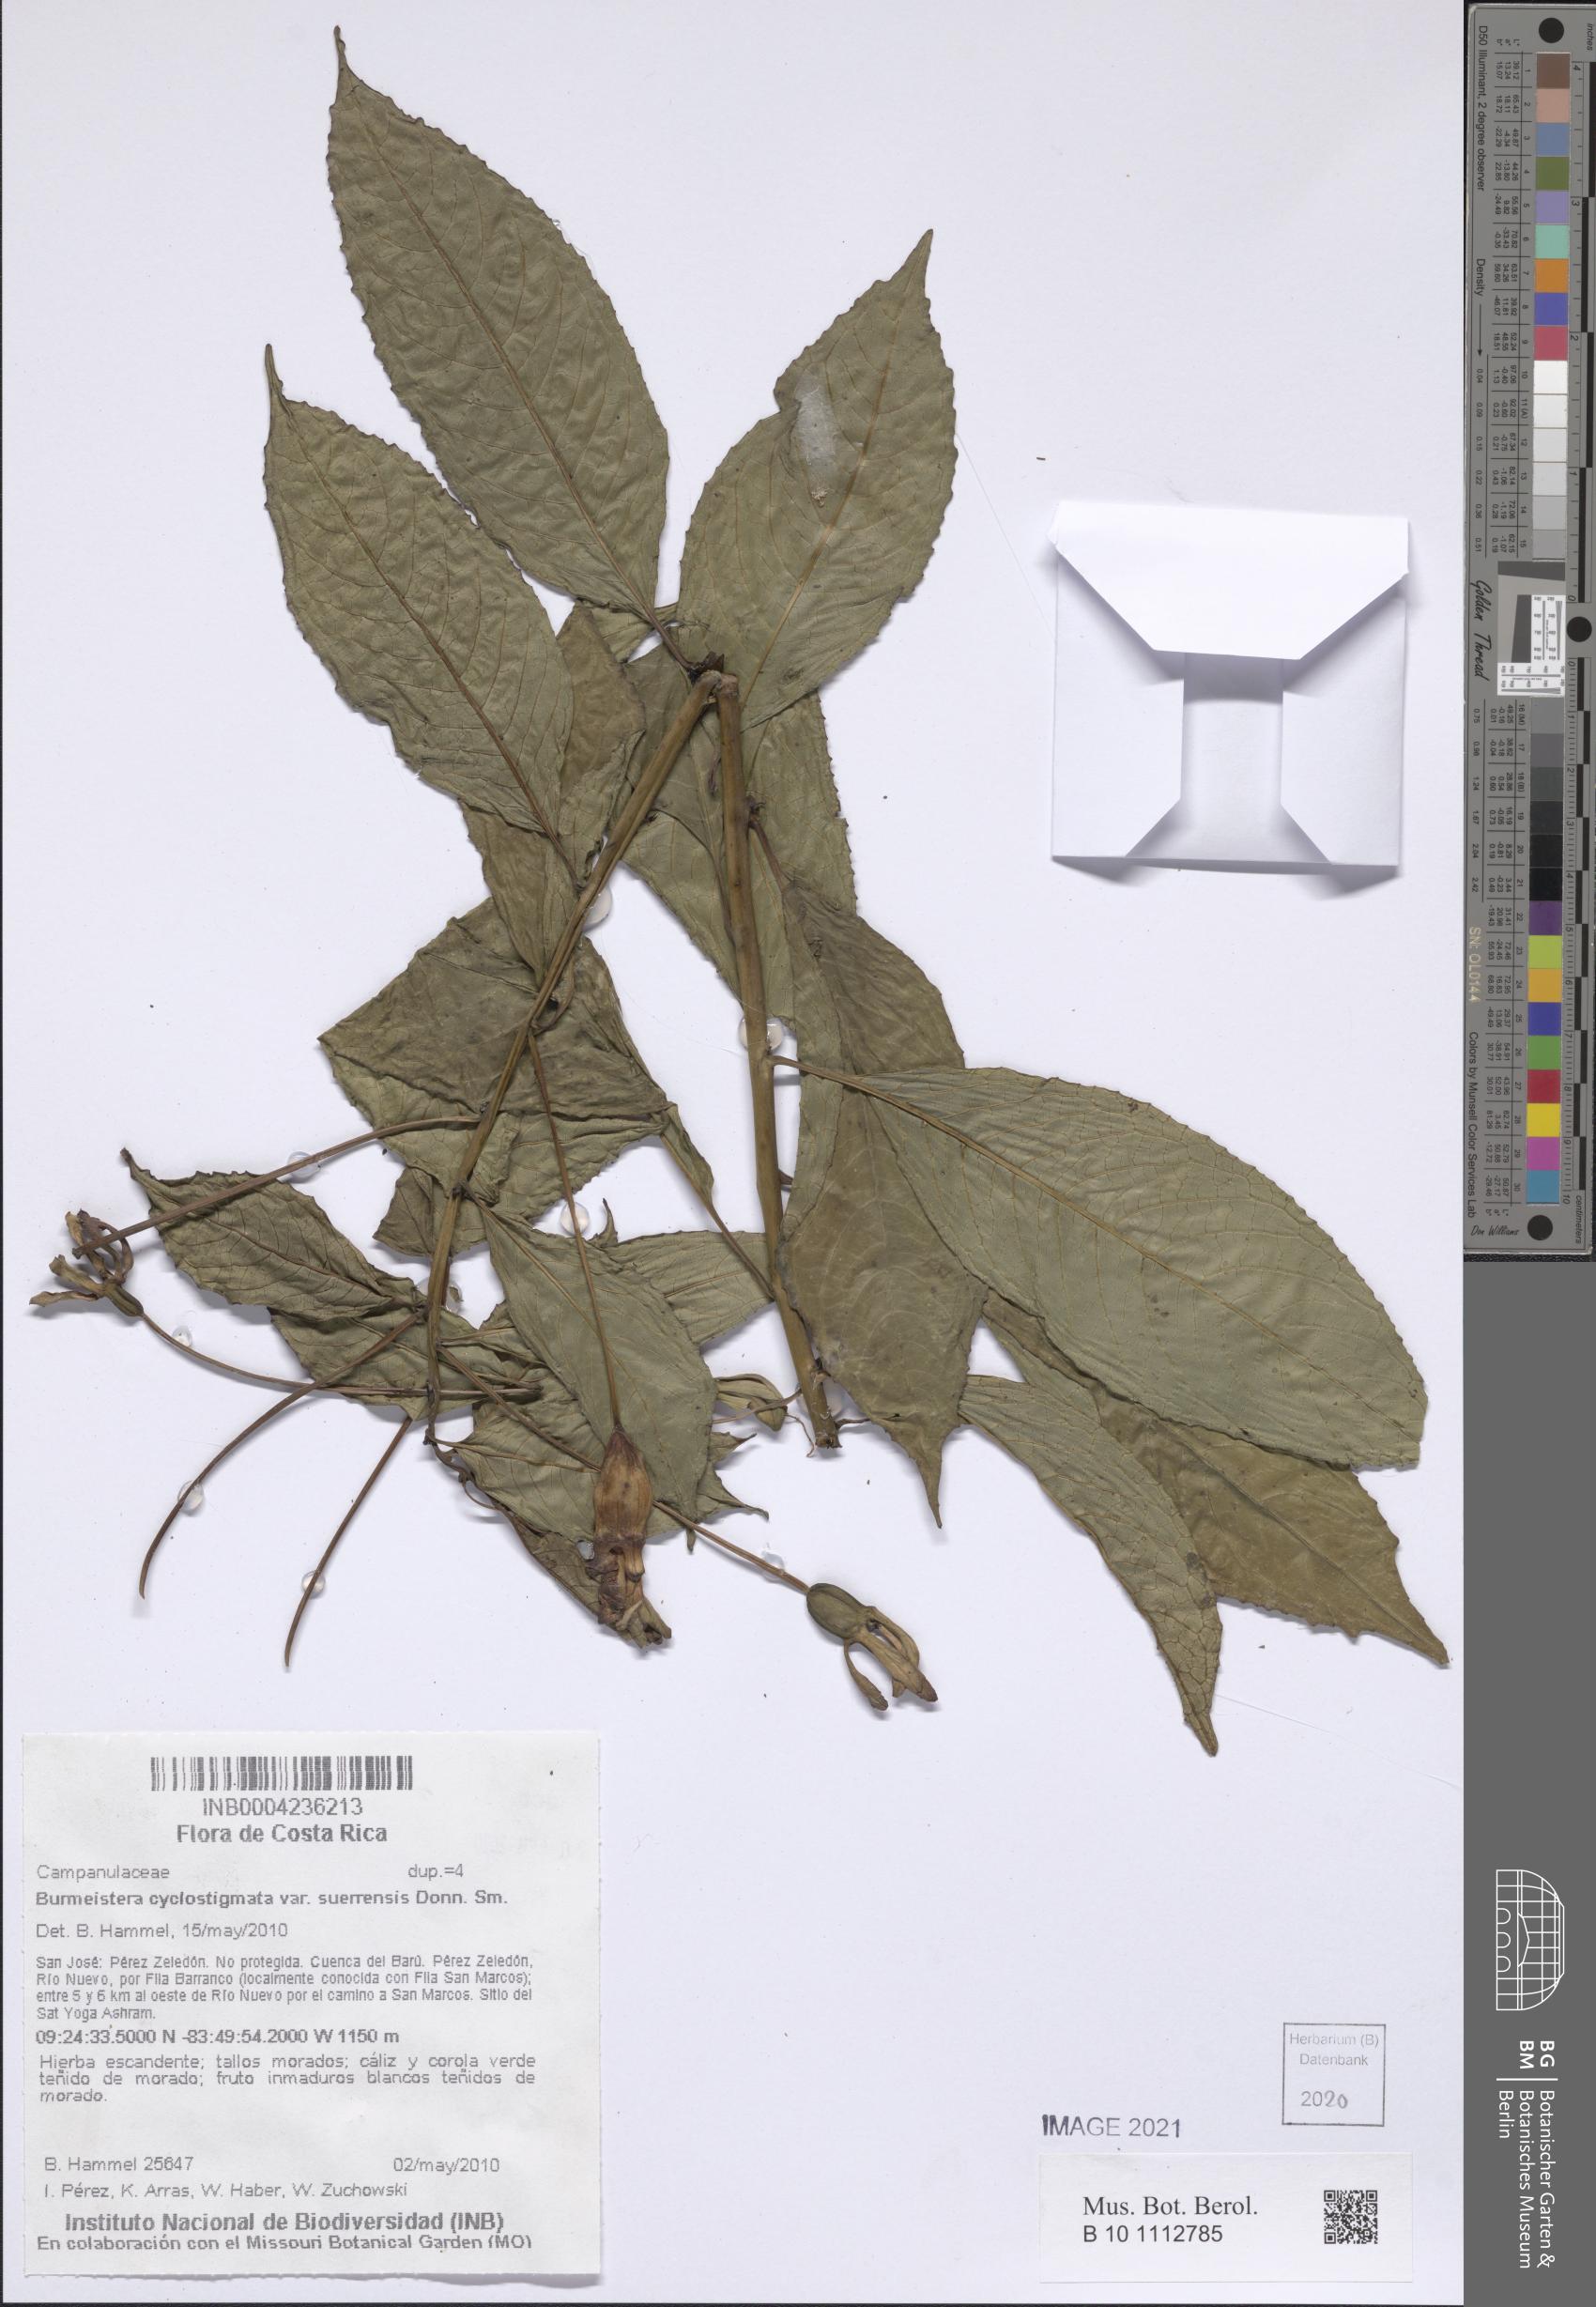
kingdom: Plantae
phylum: Tracheophyta
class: Magnoliopsida
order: Asterales
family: Campanulaceae
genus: Burmeistera
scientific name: Burmeistera cyclostigmata
